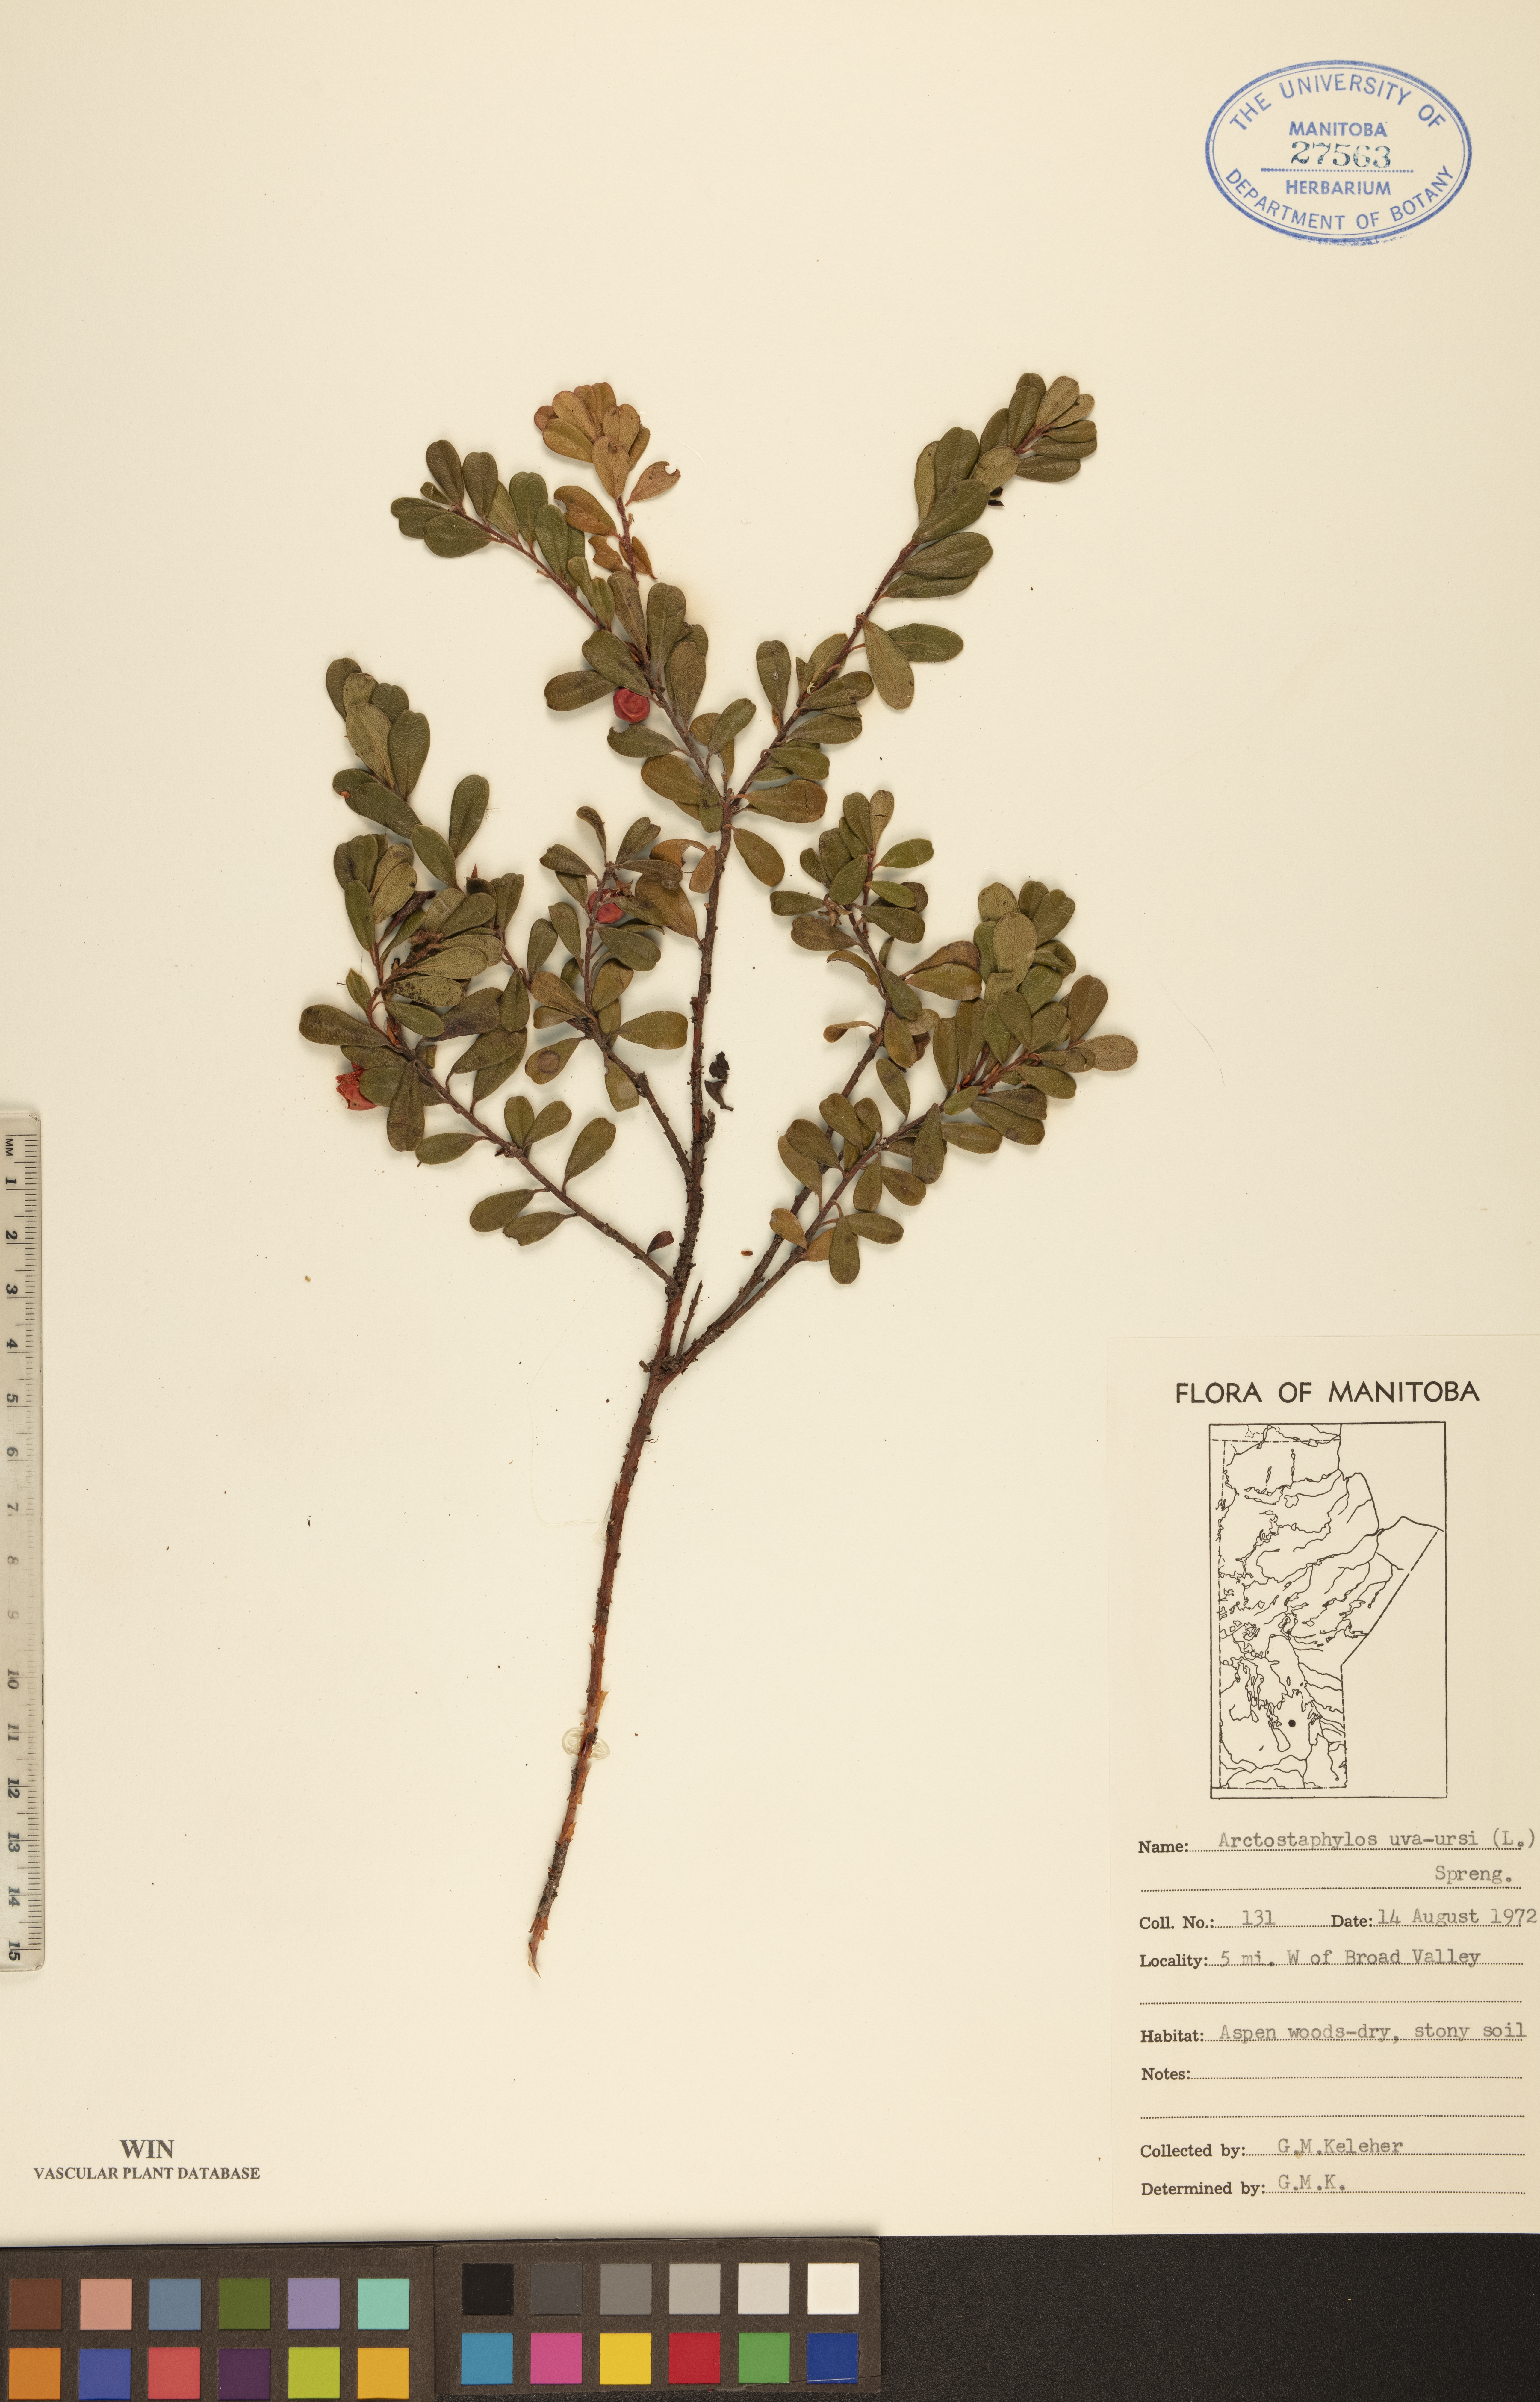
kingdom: Plantae
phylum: Tracheophyta
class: Magnoliopsida
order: Ericales
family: Ericaceae
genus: Arctostaphylos
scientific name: Arctostaphylos uva-ursi
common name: Bearberry
